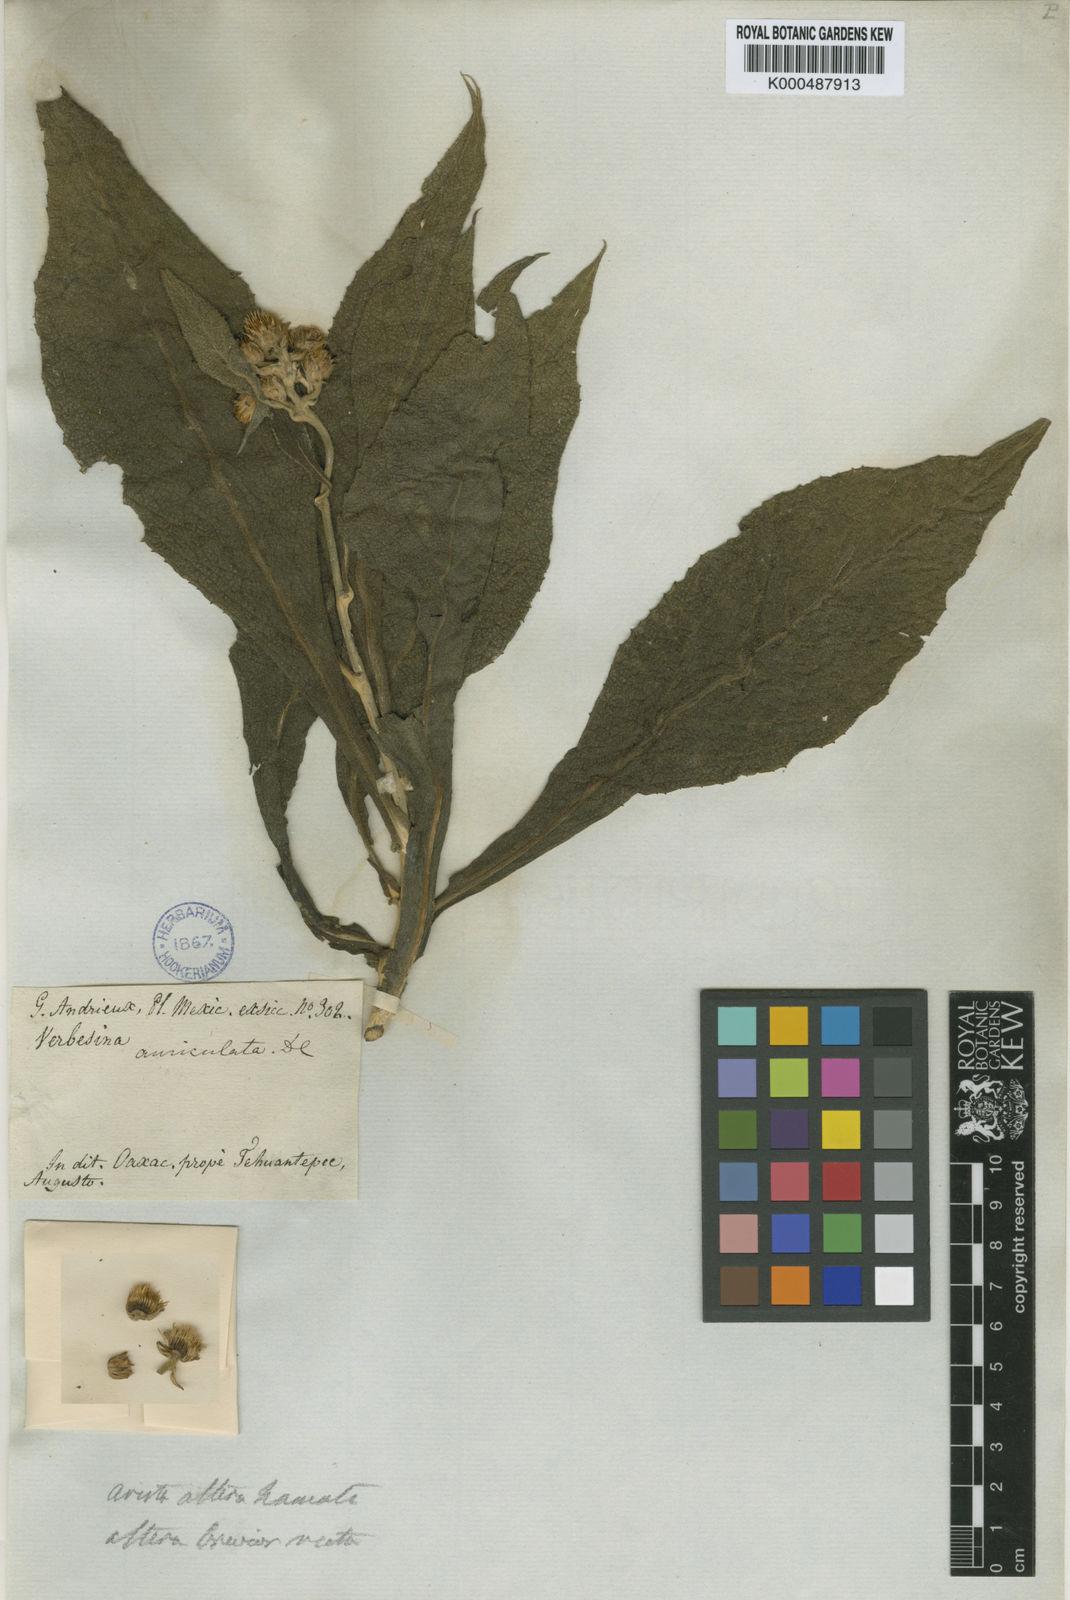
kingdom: Plantae
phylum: Tracheophyta
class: Magnoliopsida
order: Asterales
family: Asteraceae
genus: Verbesina
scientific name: Verbesina auriculata
